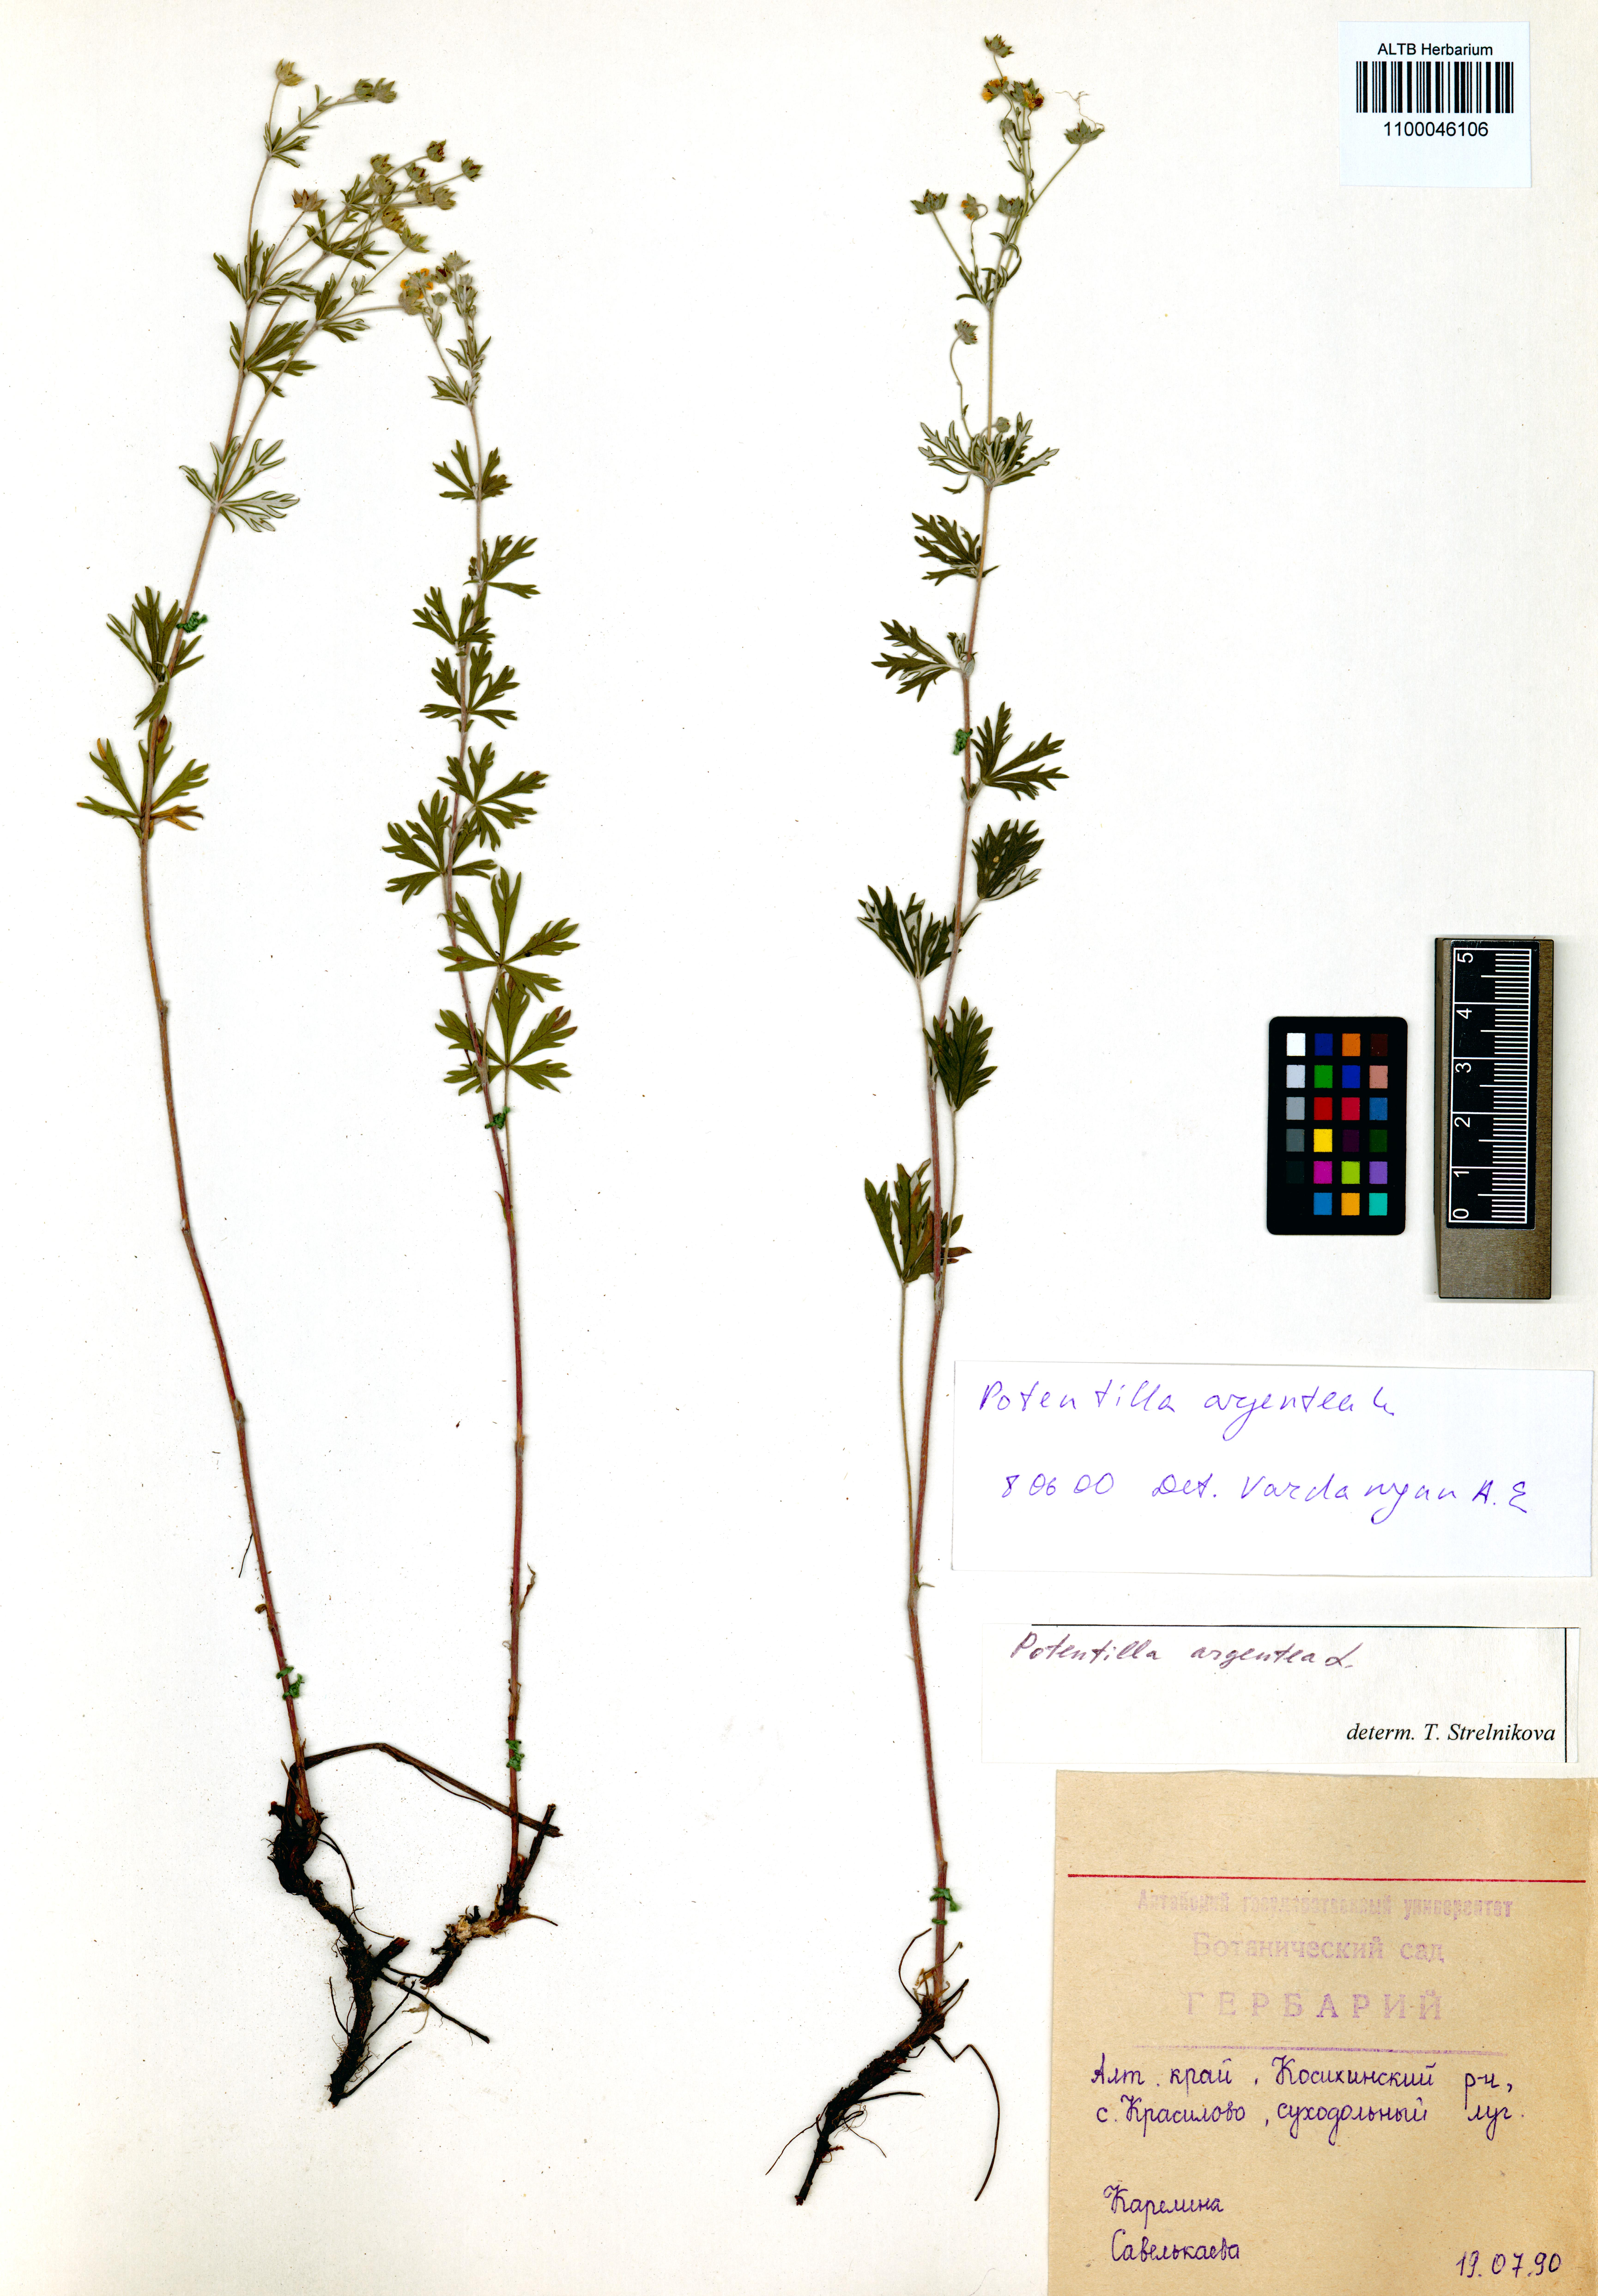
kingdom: Plantae
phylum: Tracheophyta
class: Magnoliopsida
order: Rosales
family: Rosaceae
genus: Potentilla
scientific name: Potentilla argentea
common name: Hoary cinquefoil
